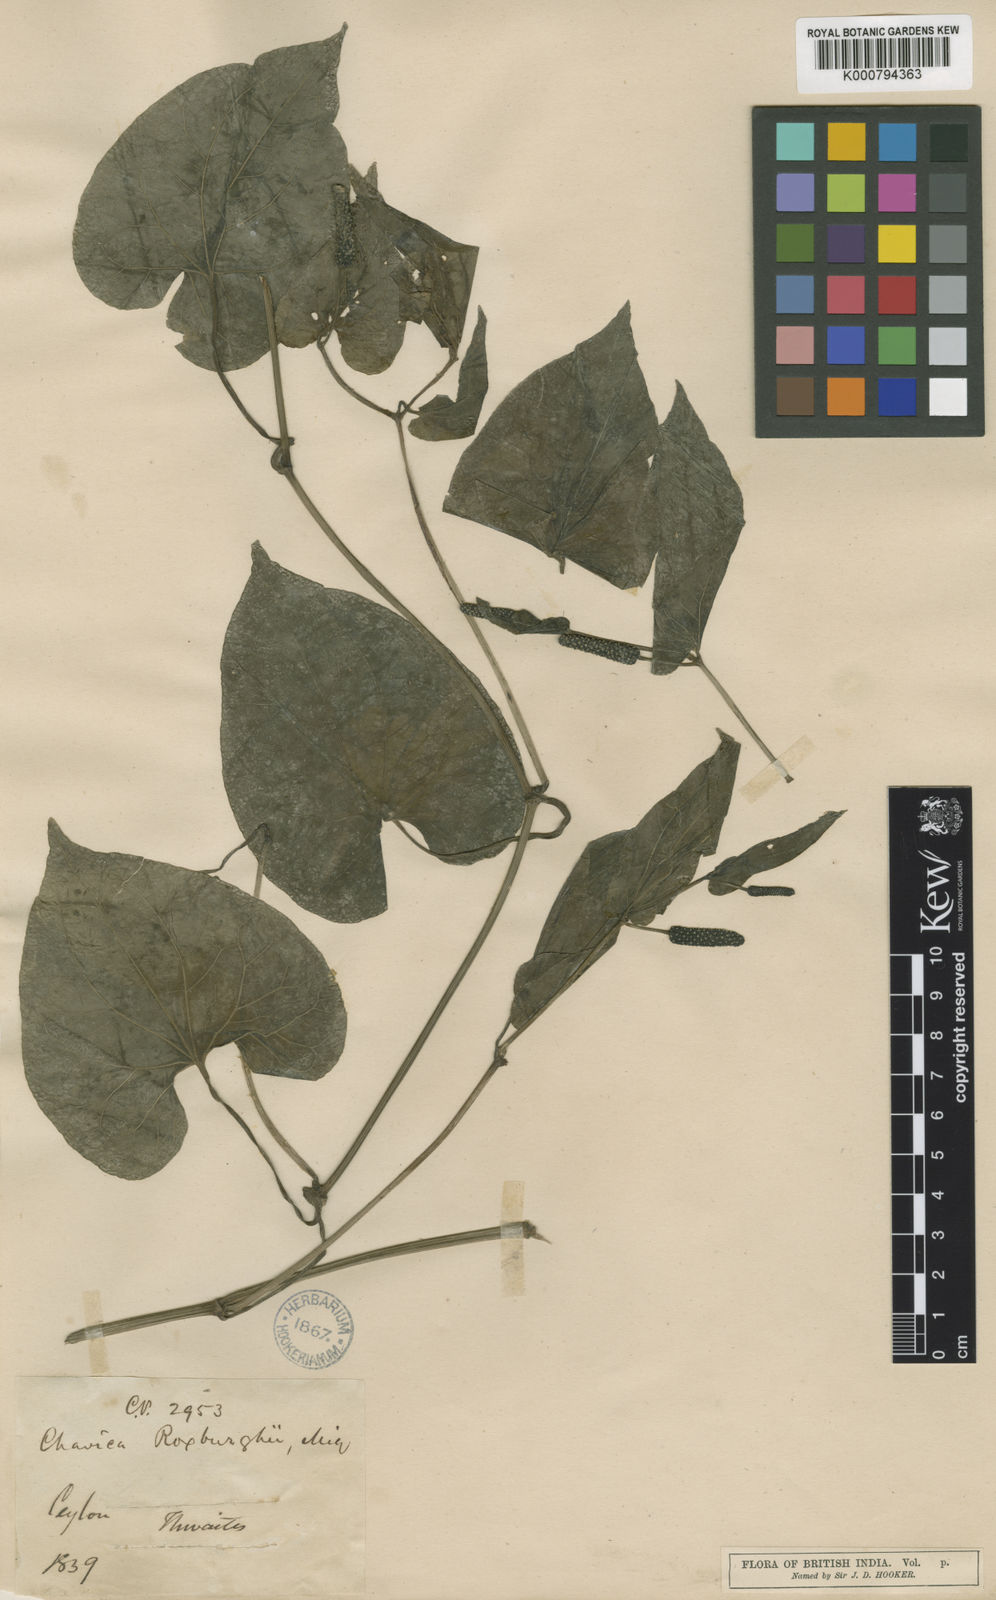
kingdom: Plantae
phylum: Tracheophyta
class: Magnoliopsida
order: Piperales
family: Piperaceae
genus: Piper
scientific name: Piper longum
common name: Long pepper
